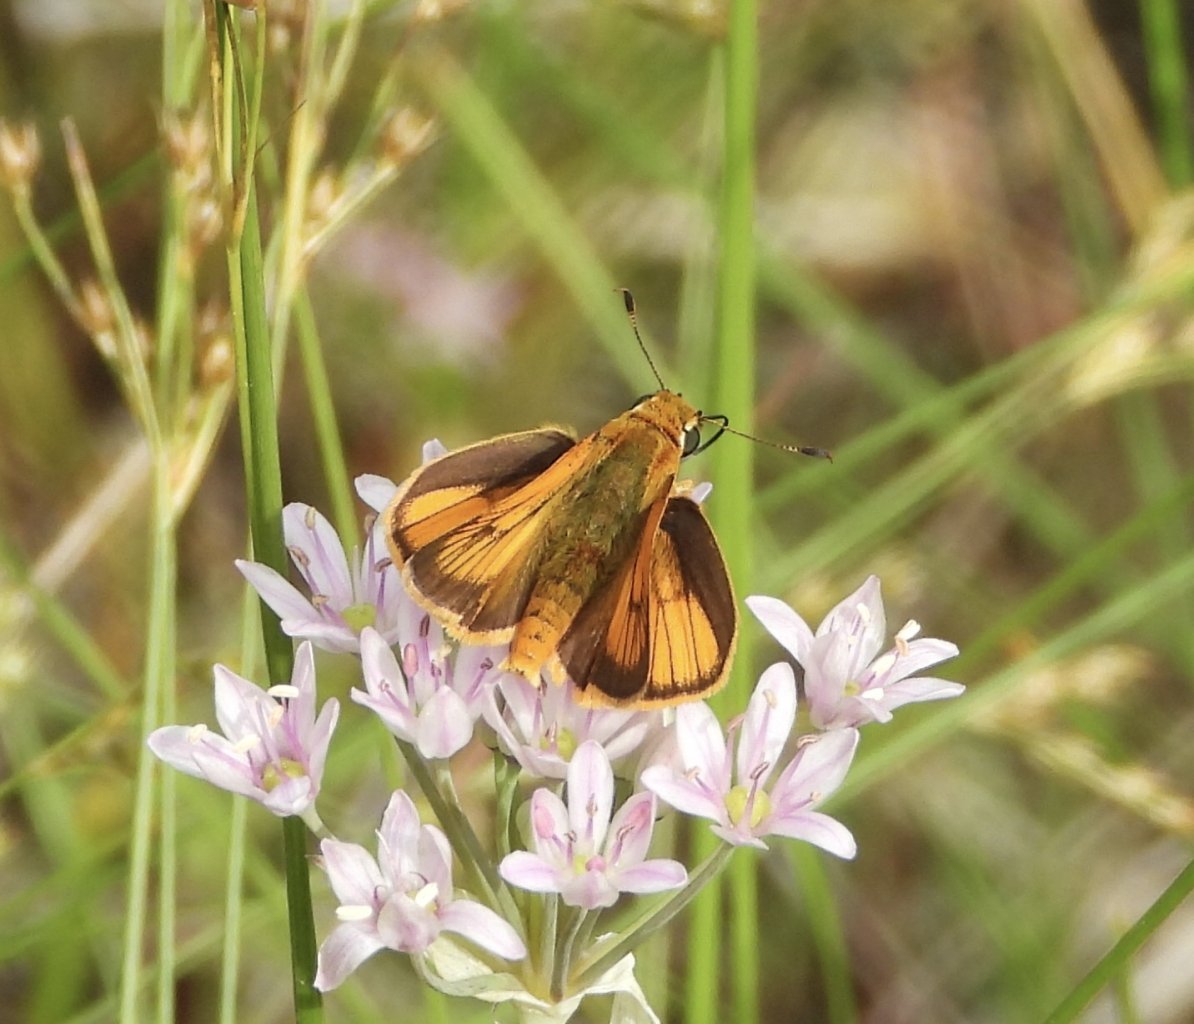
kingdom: Animalia
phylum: Arthropoda
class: Insecta
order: Lepidoptera
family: Hesperiidae
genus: Atrytone
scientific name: Atrytone delaware
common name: Delaware Skipper
